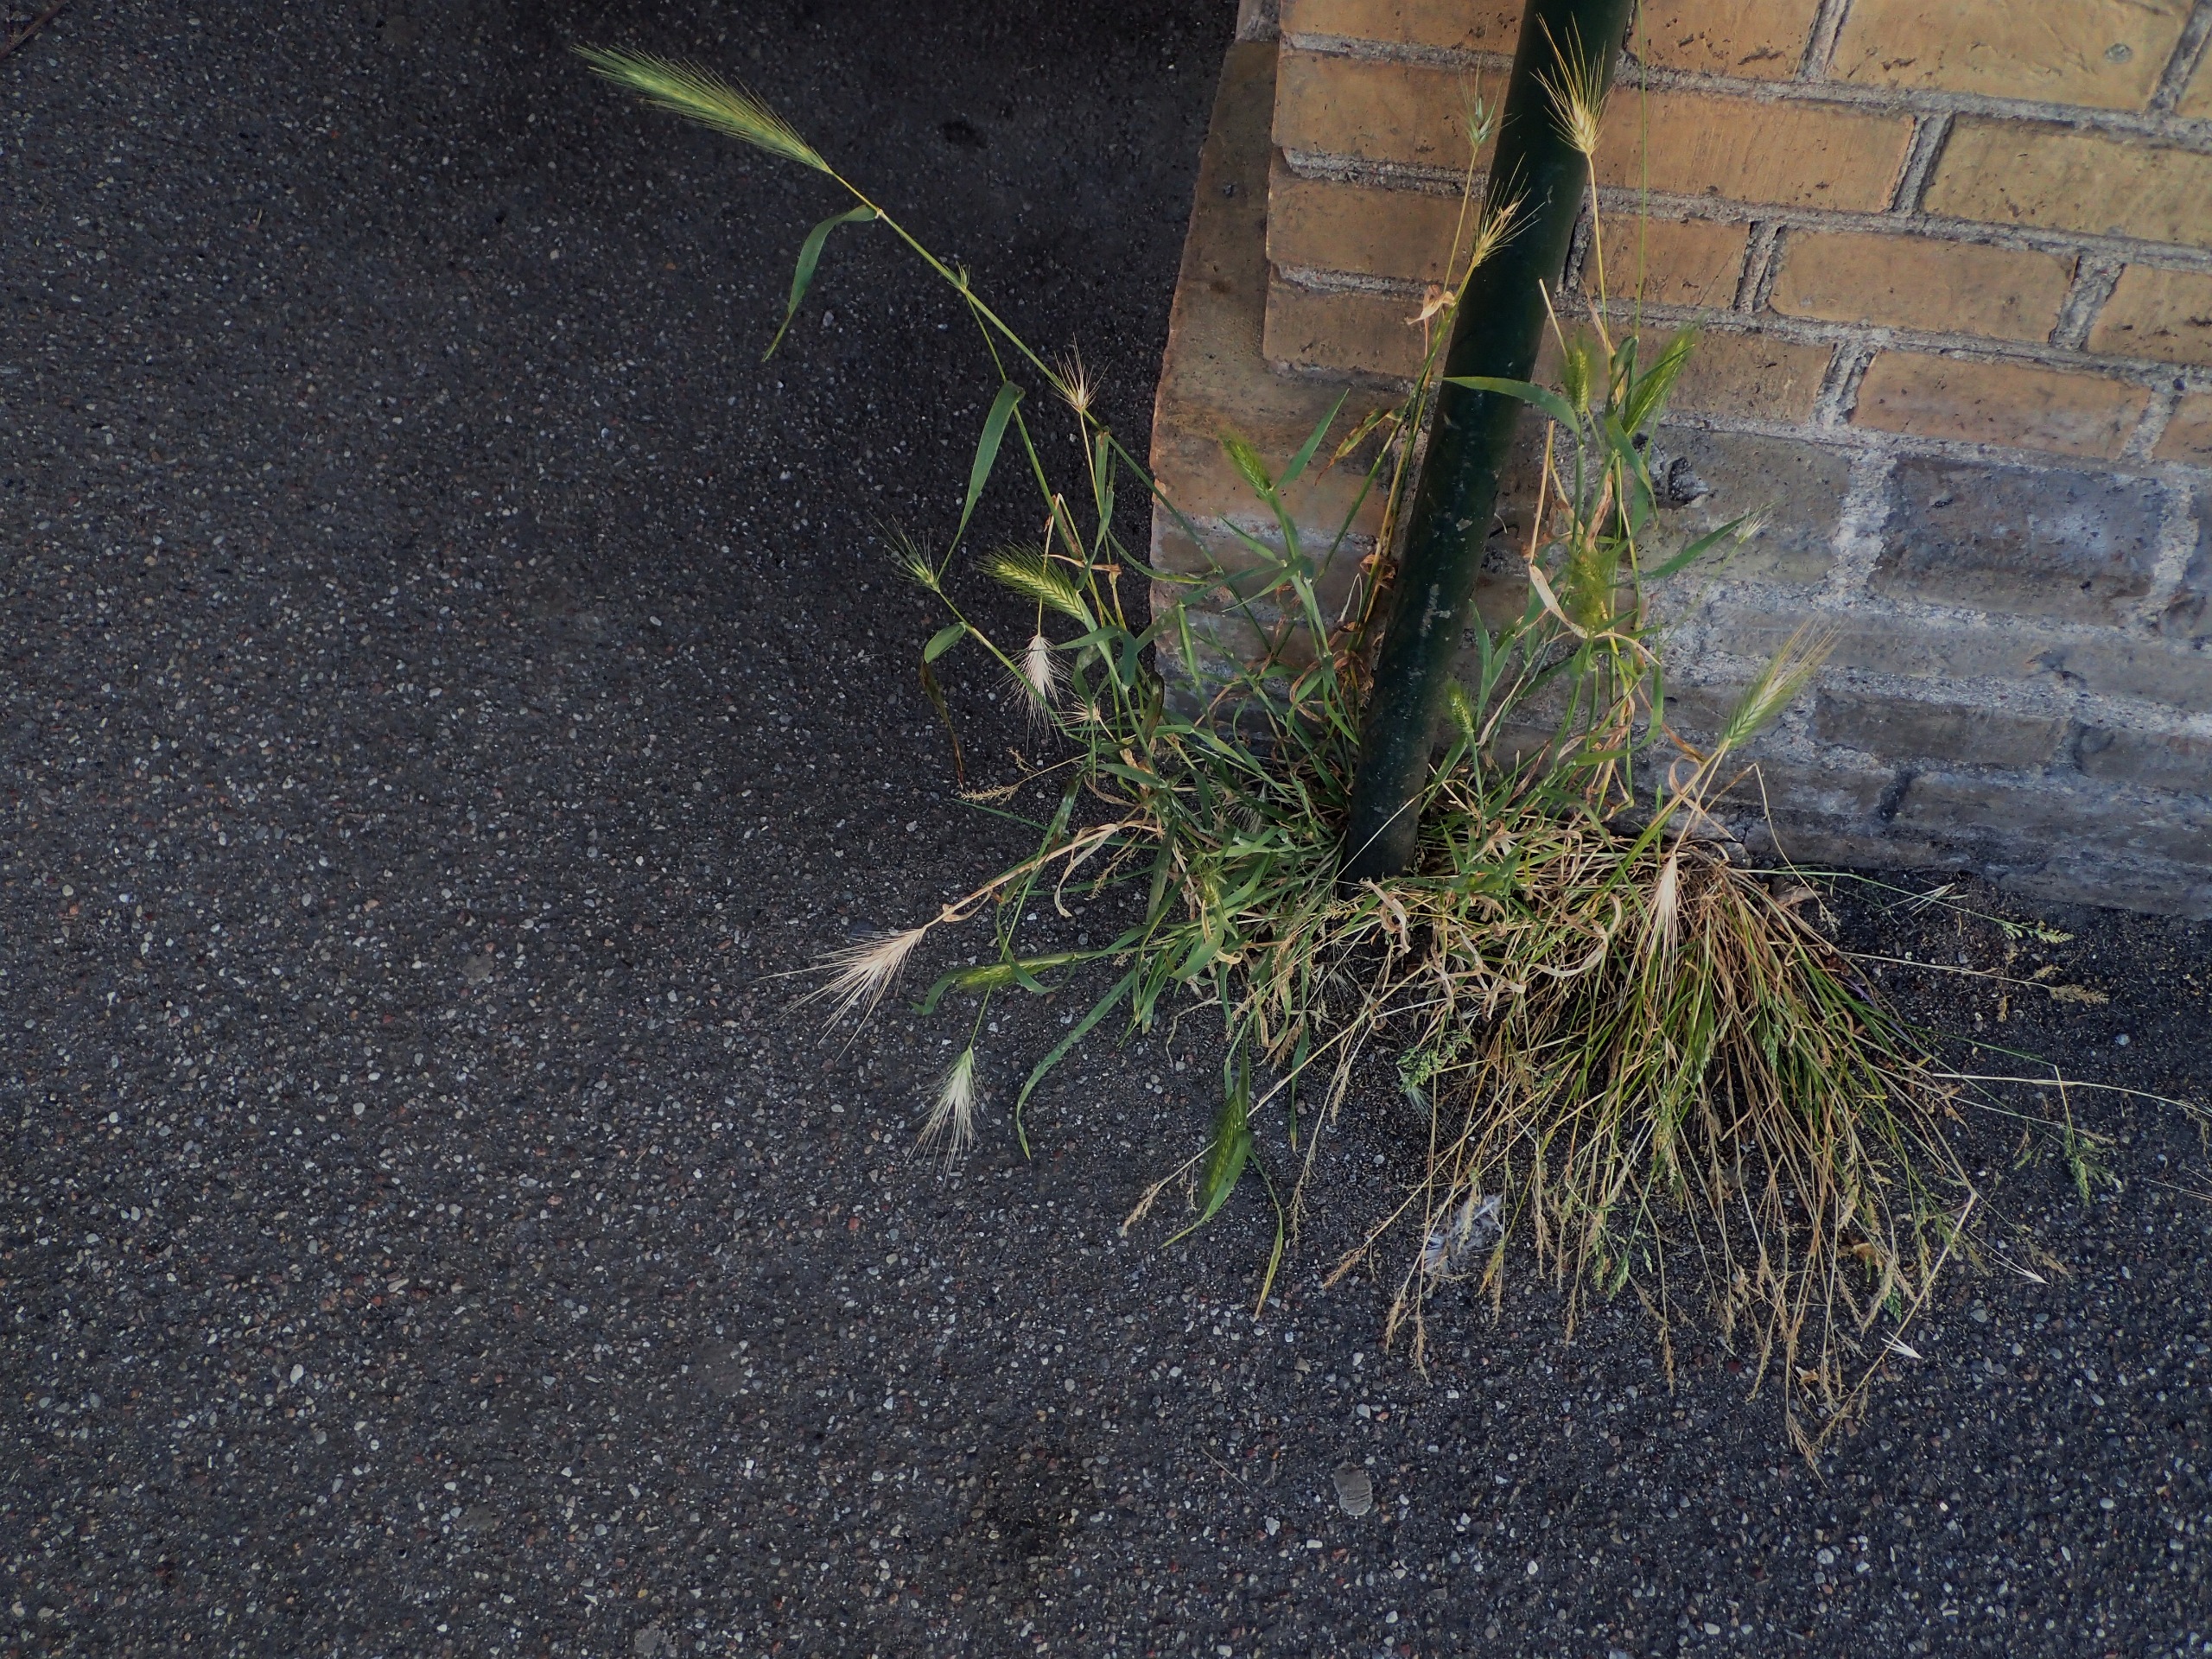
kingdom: Plantae
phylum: Tracheophyta
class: Liliopsida
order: Poales
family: Poaceae
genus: Hordeum
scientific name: Hordeum murinum
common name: Gold byg
